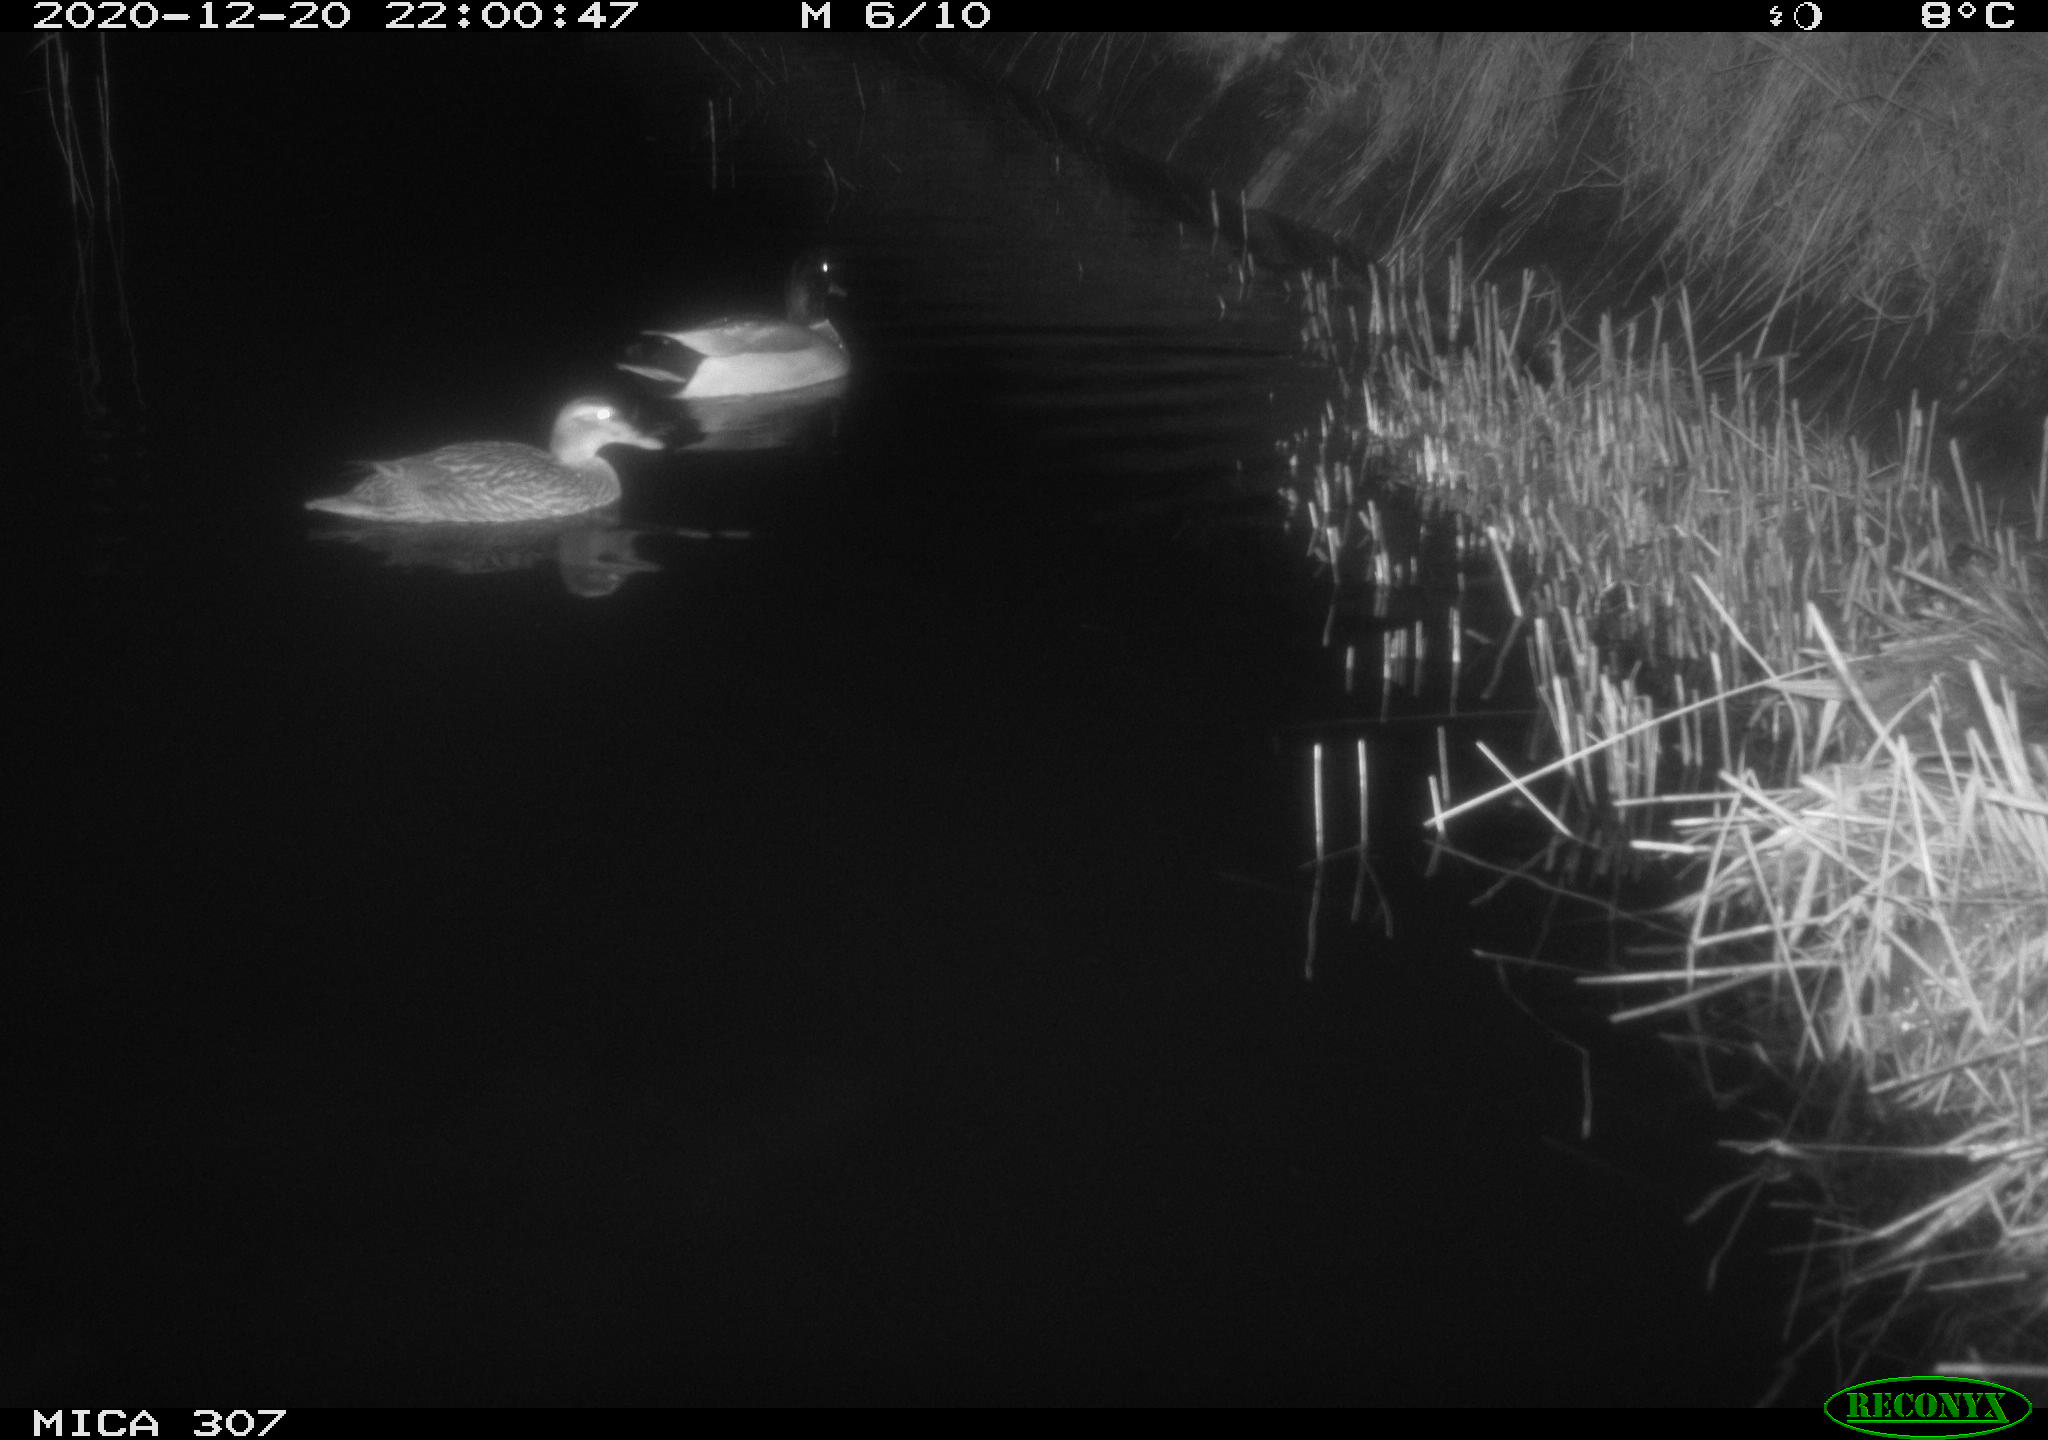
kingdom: Animalia
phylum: Chordata
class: Aves
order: Anseriformes
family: Anatidae
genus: Anas
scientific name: Anas platyrhynchos
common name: Mallard
